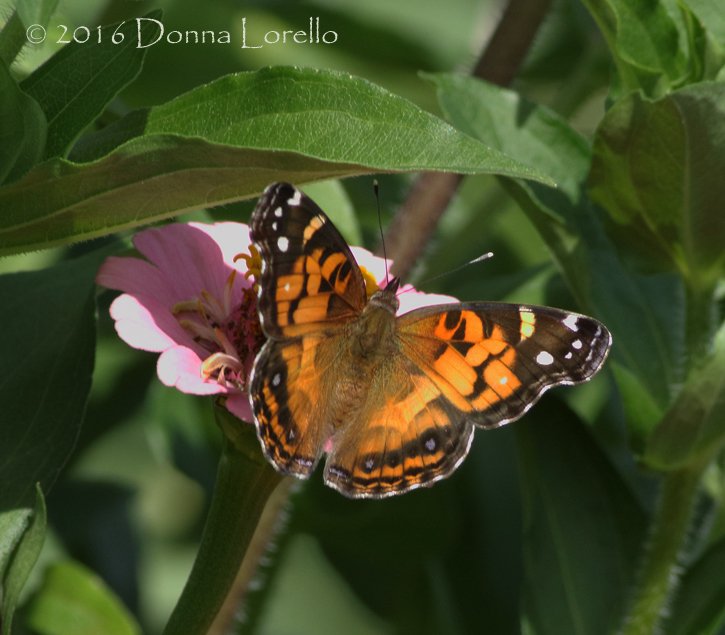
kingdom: Animalia
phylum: Arthropoda
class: Insecta
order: Lepidoptera
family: Nymphalidae
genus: Vanessa
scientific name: Vanessa virginiensis
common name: American Lady
